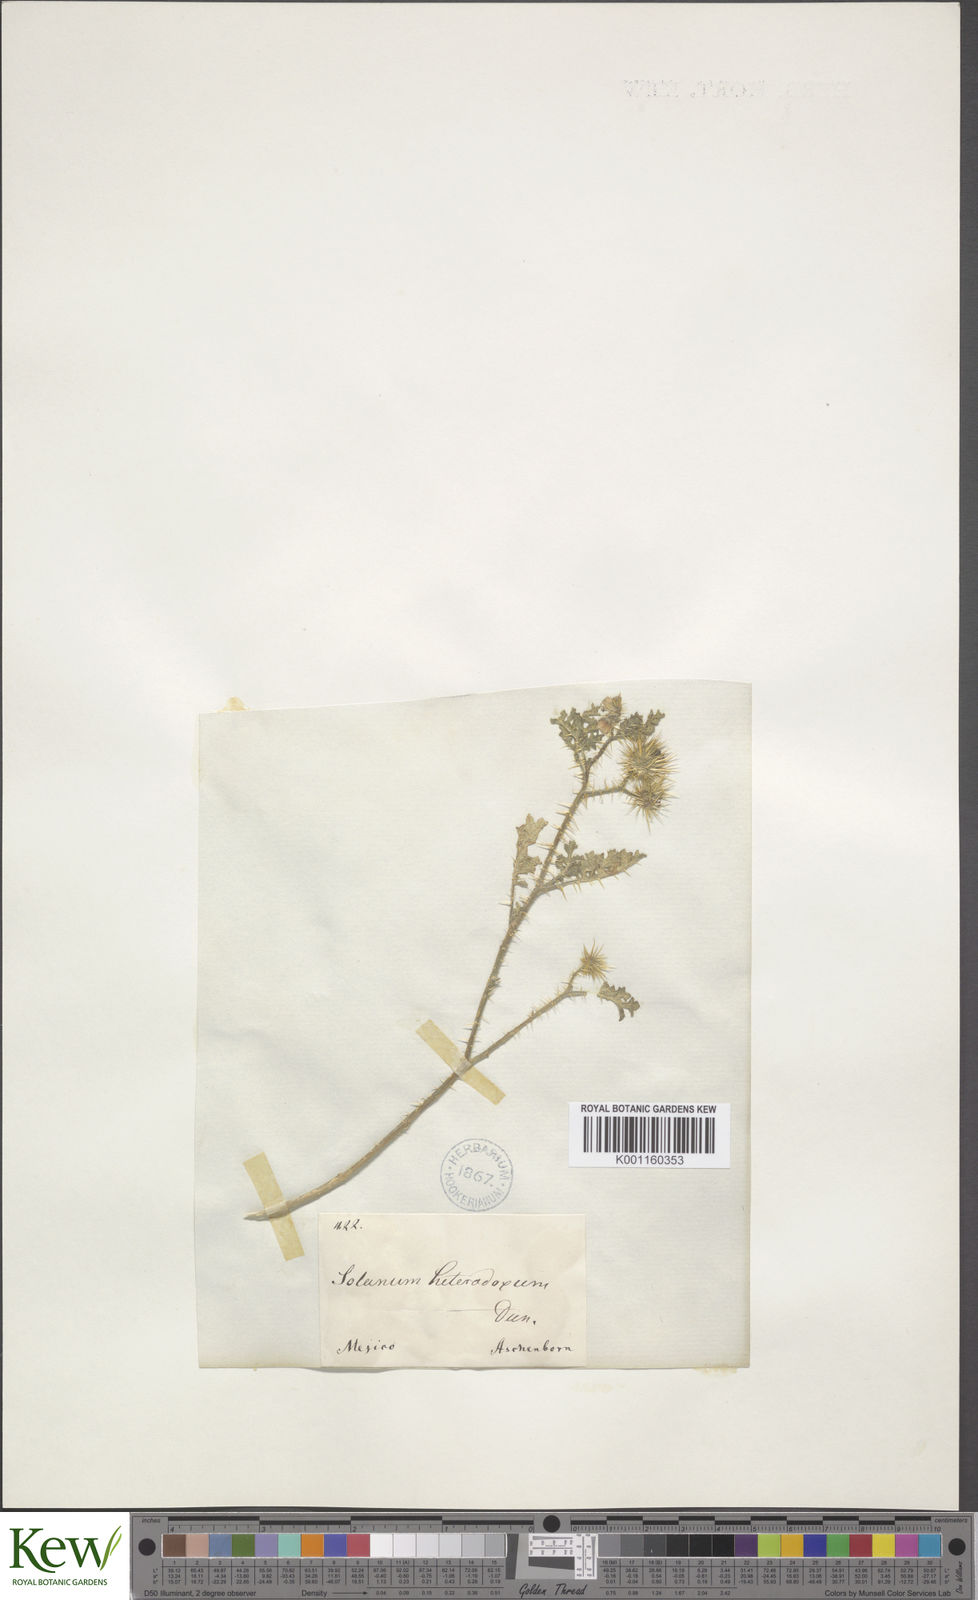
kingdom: Plantae
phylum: Tracheophyta
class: Magnoliopsida
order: Solanales
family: Solanaceae
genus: Solanum
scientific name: Solanum heterodoxum
